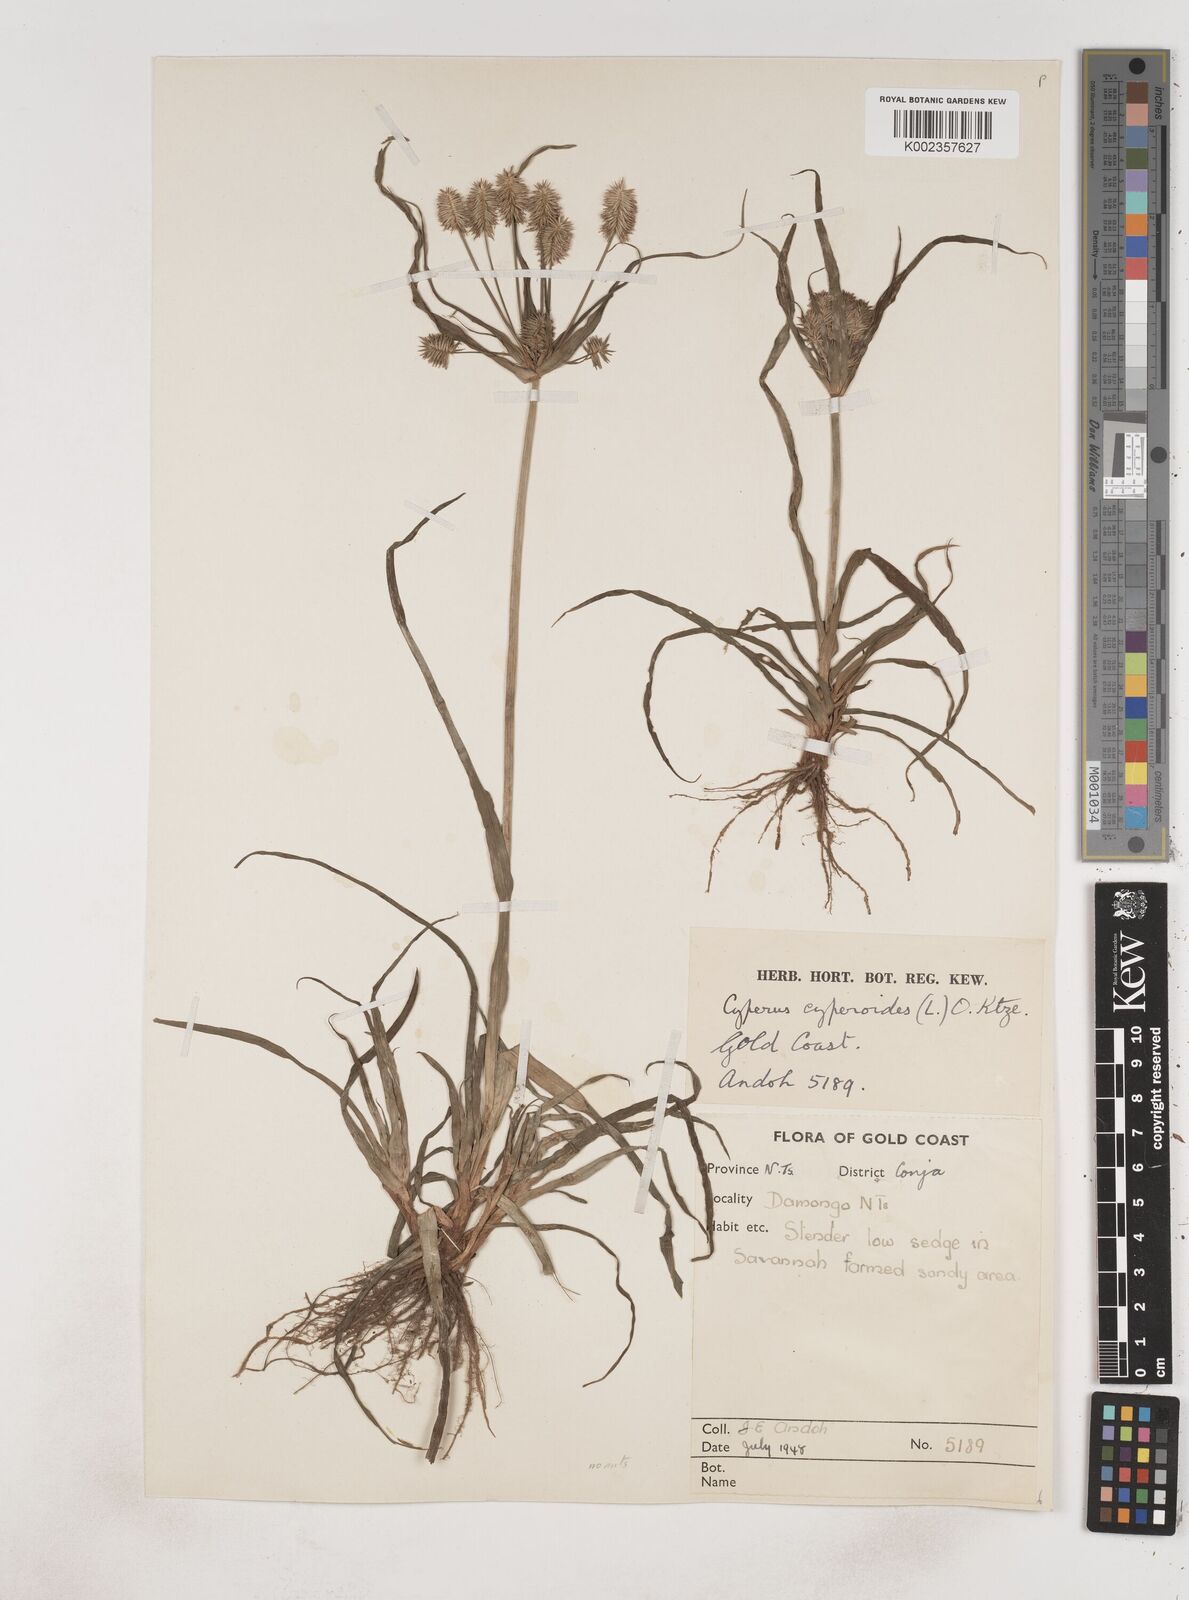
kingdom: Plantae
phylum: Tracheophyta
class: Liliopsida
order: Poales
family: Cyperaceae
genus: Cyperus
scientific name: Cyperus cyperoides
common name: Pacific island flat sedge
